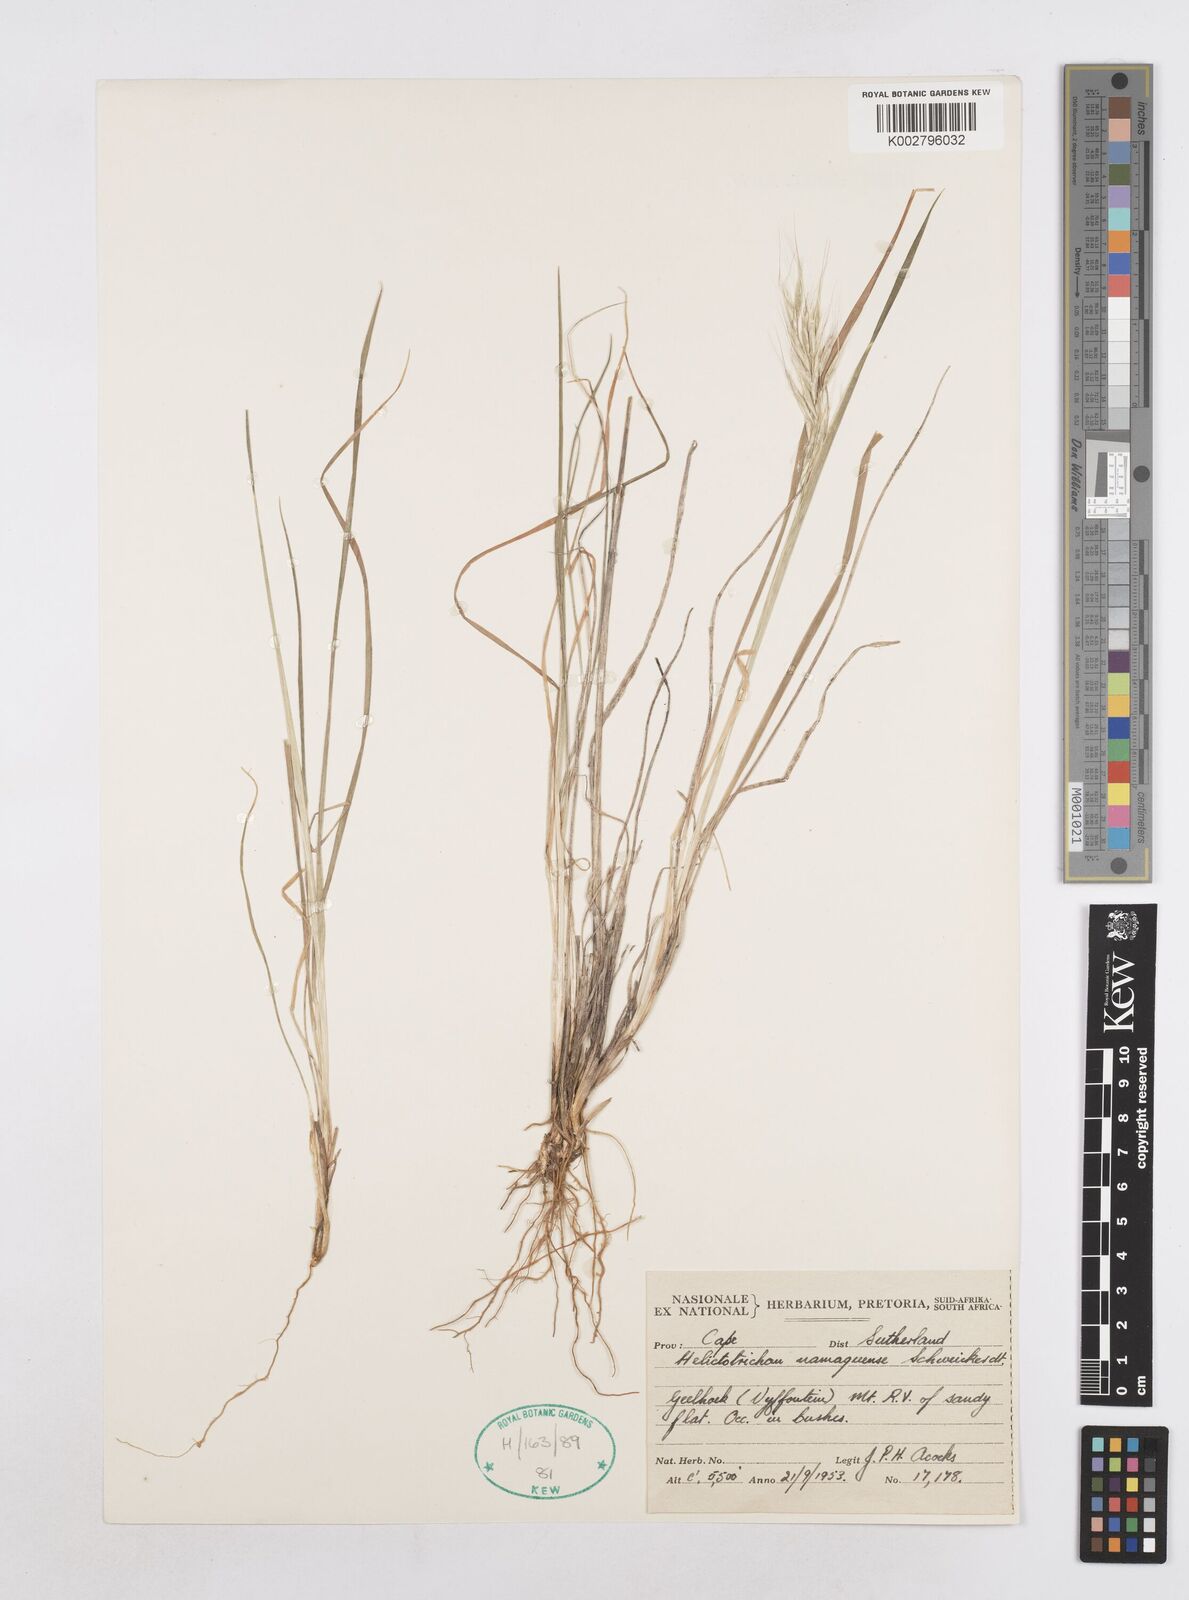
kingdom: Plantae
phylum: Tracheophyta
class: Liliopsida
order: Poales
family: Poaceae
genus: Trisetopsis
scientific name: Trisetopsis namaquensis
